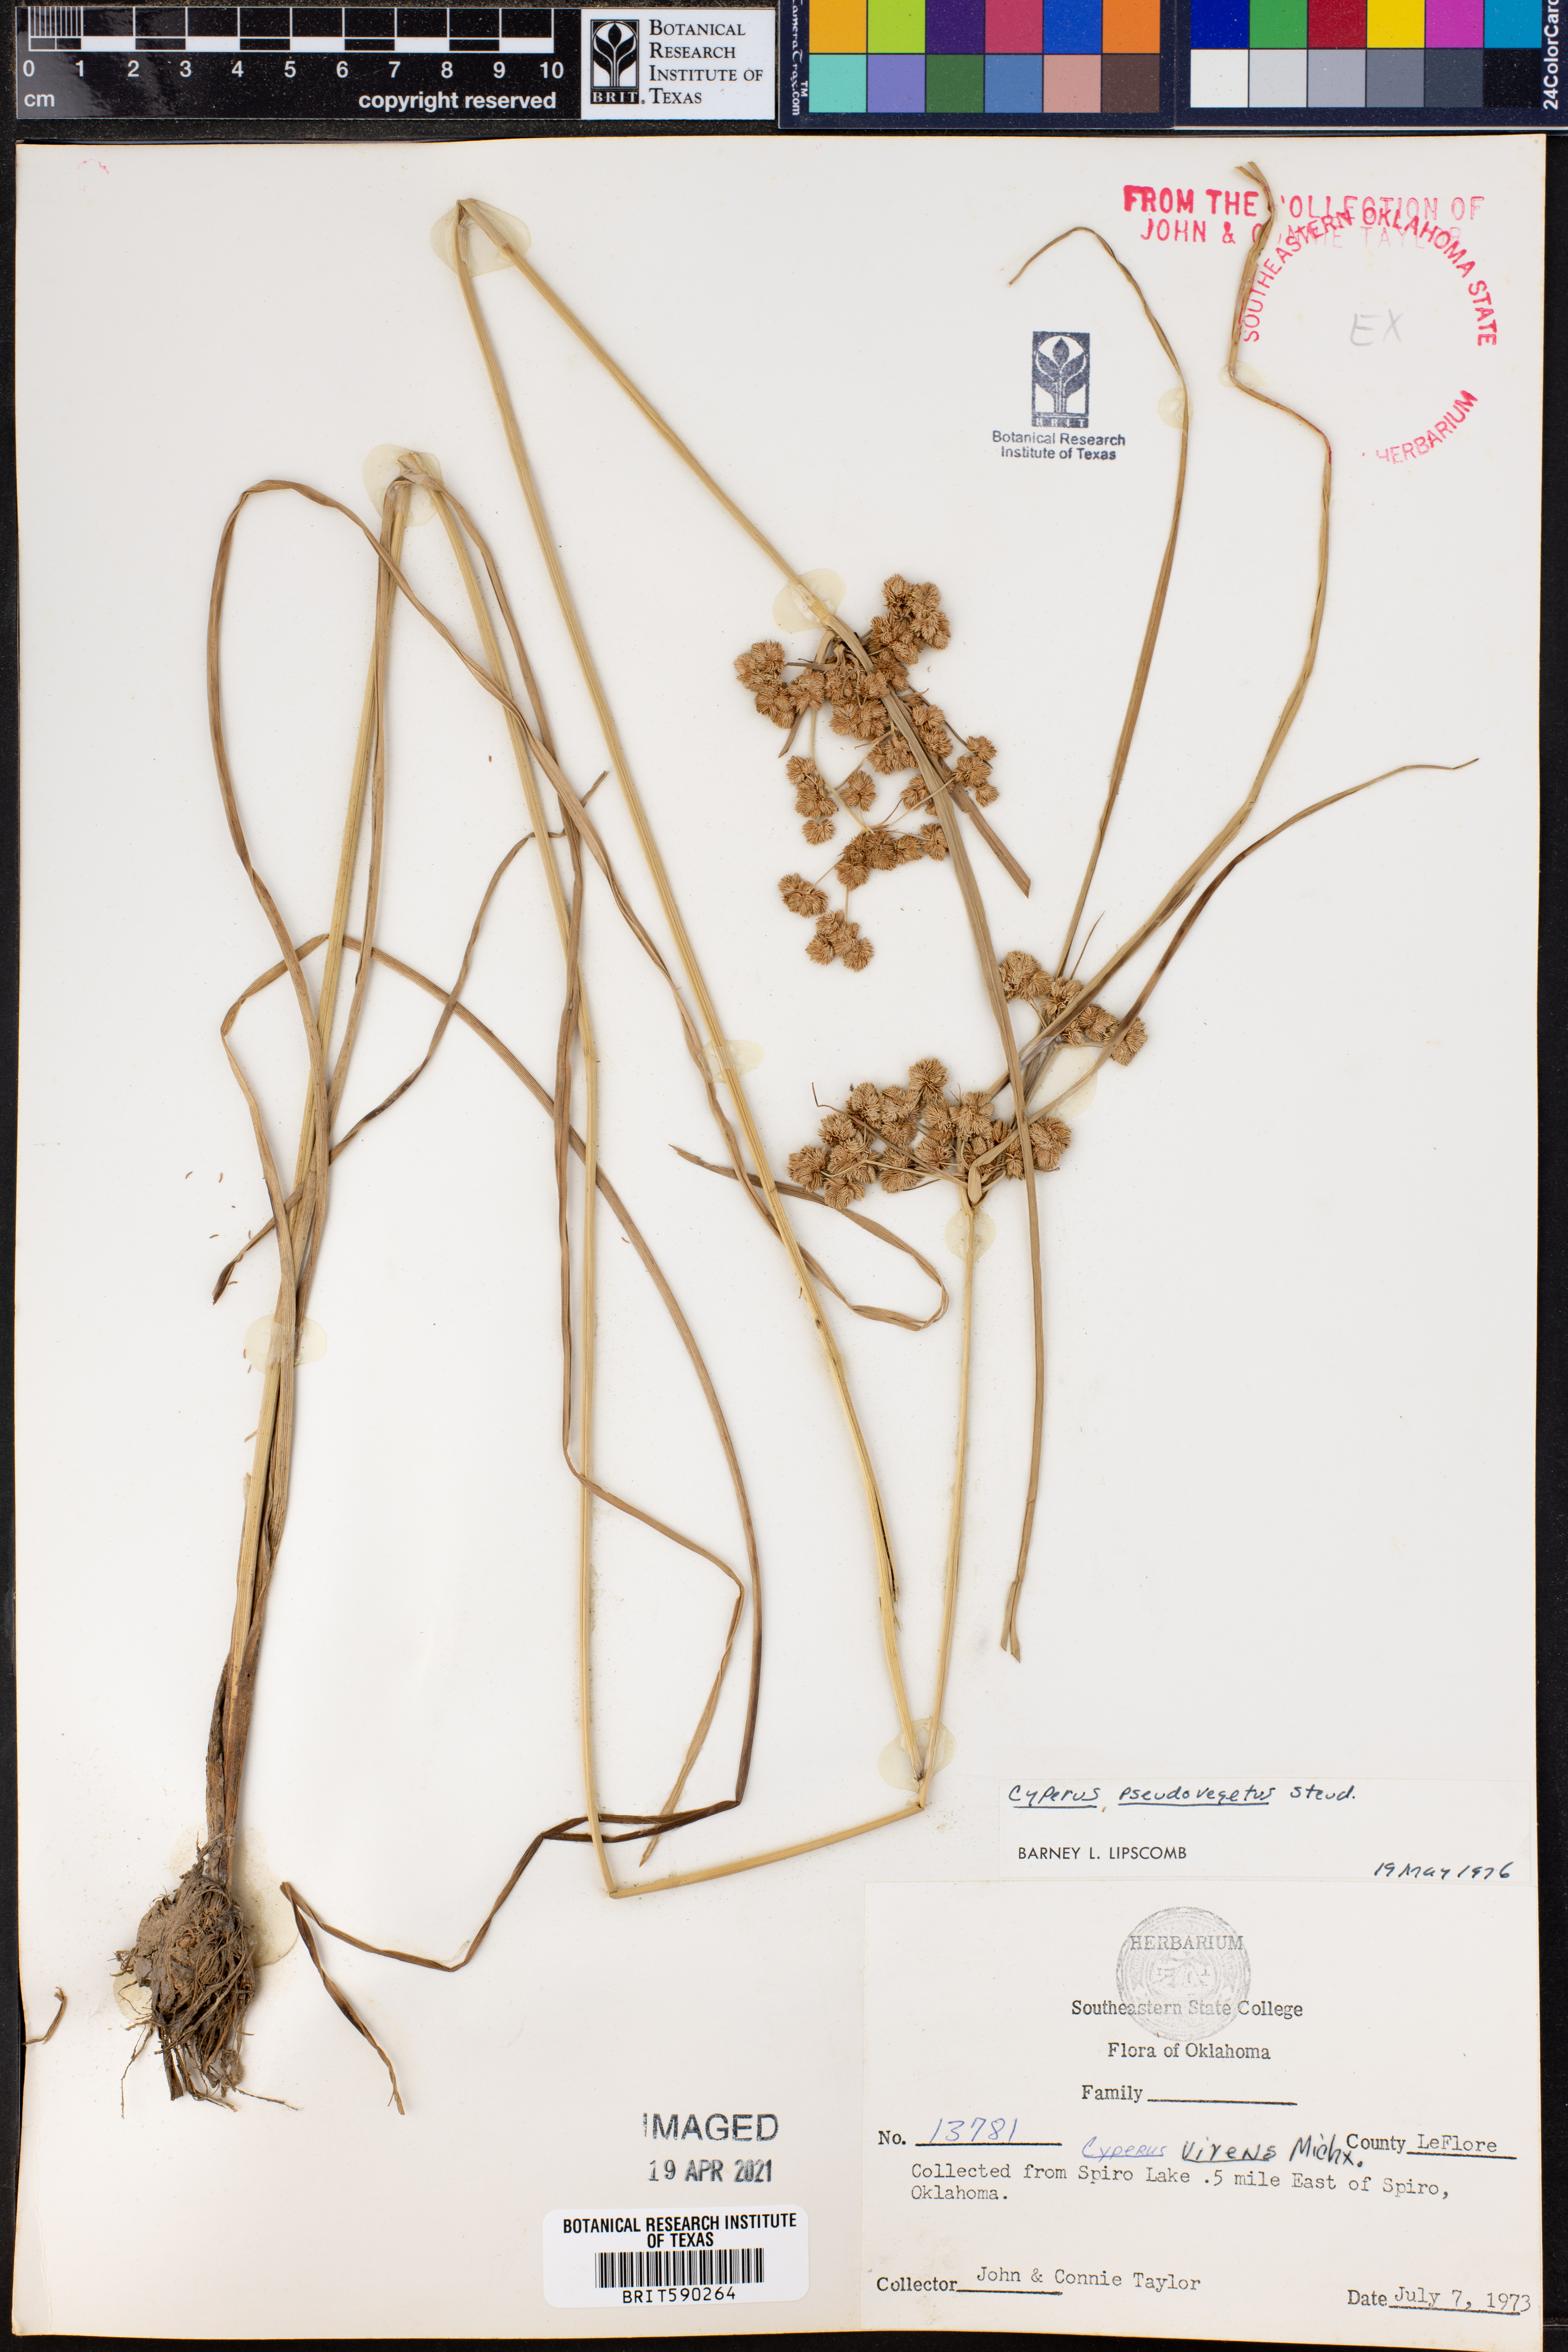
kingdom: Plantae
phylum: Tracheophyta
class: Liliopsida
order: Poales
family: Cyperaceae
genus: Cyperus
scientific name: Cyperus pseudovegetus
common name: Marsh flat sedge
